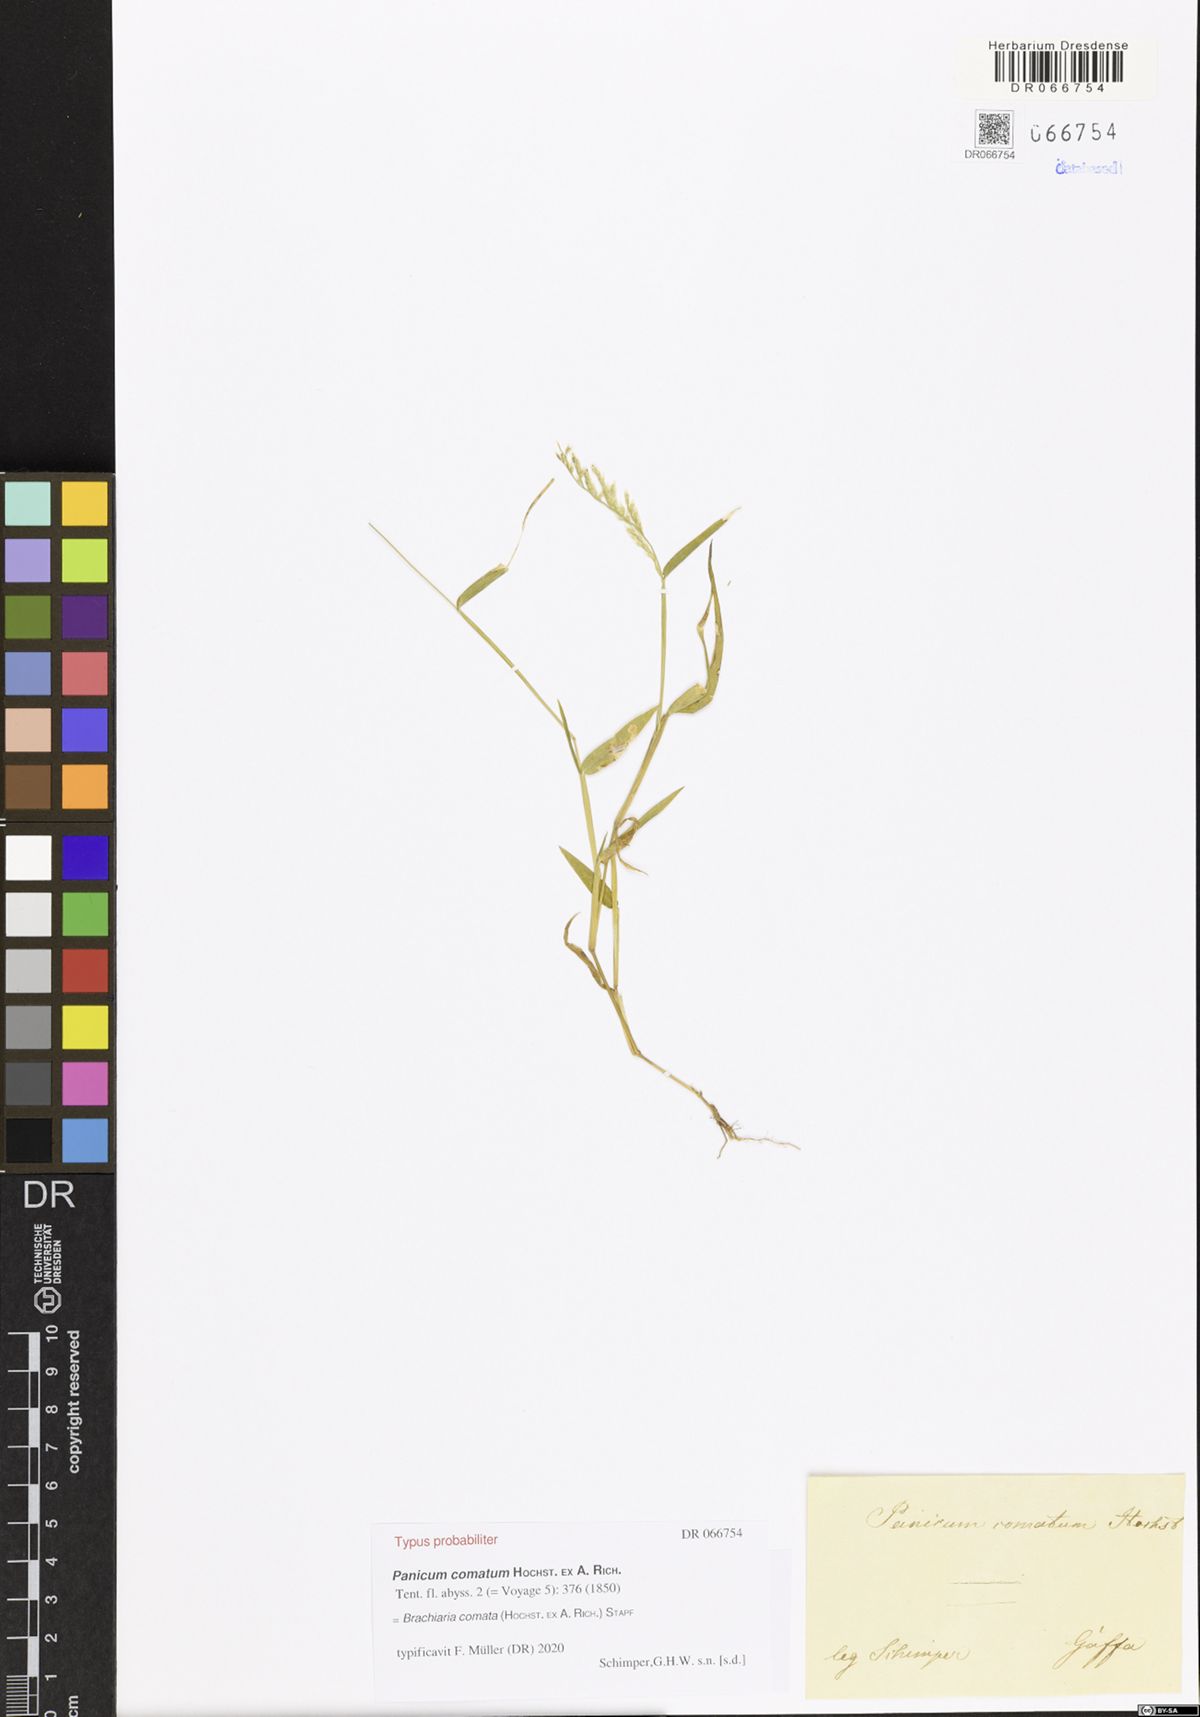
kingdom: Plantae
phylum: Tracheophyta
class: Liliopsida
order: Poales
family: Poaceae
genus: Urochloa
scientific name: Urochloa comata
